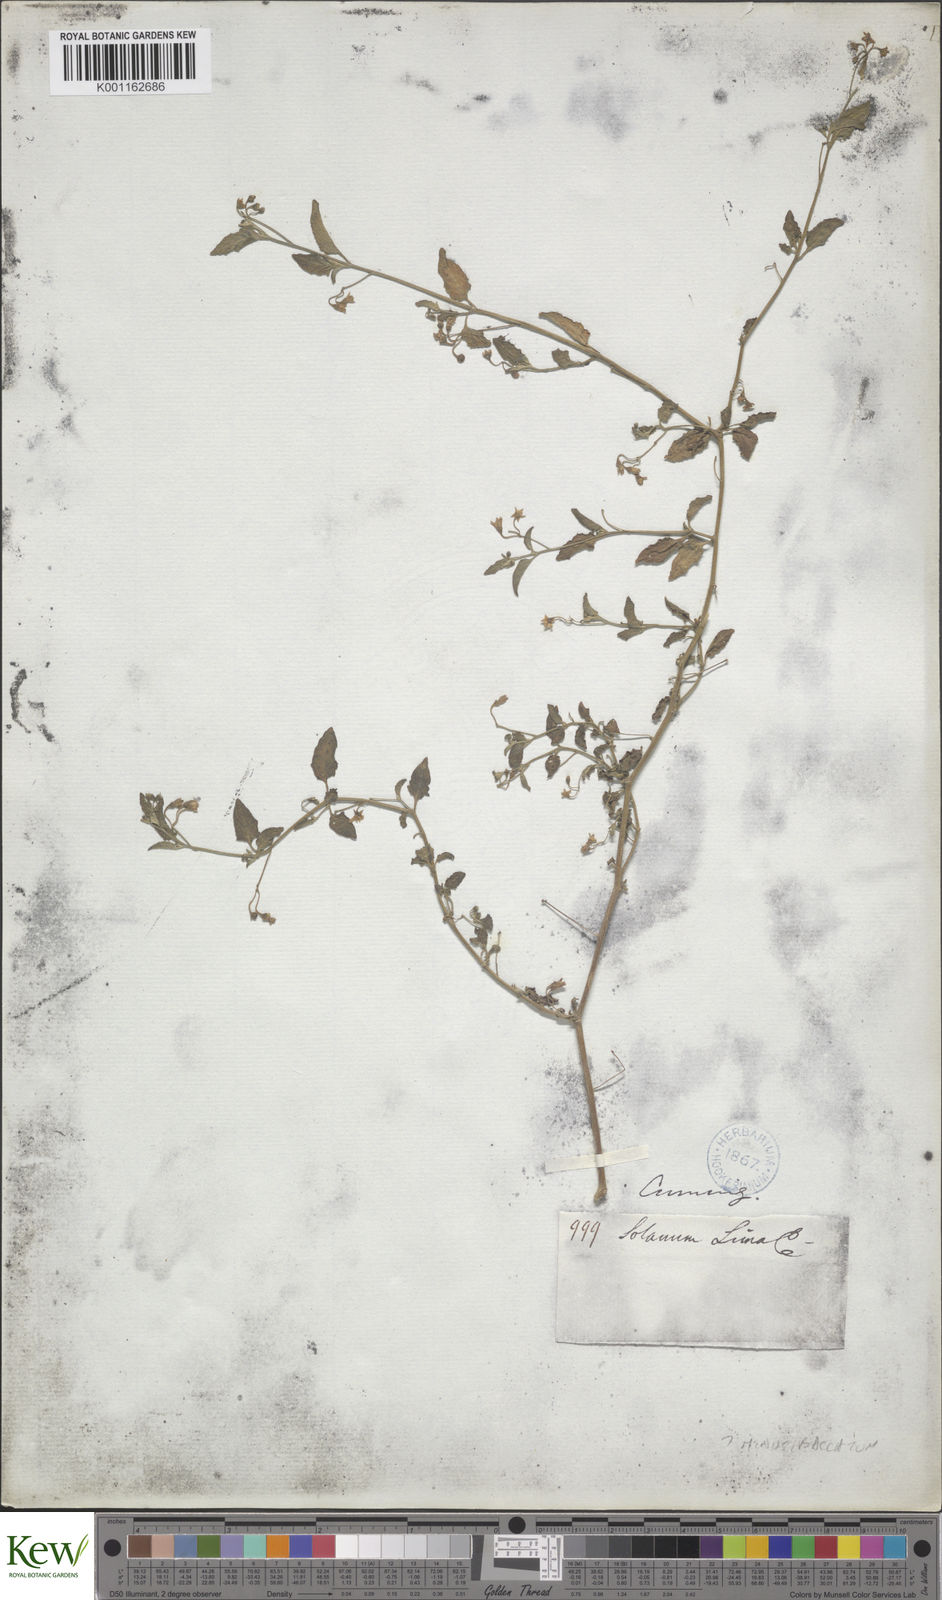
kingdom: Plantae
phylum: Tracheophyta
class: Magnoliopsida
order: Solanales
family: Solanaceae
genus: Solanum
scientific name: Solanum americanum
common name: American black nightshade
